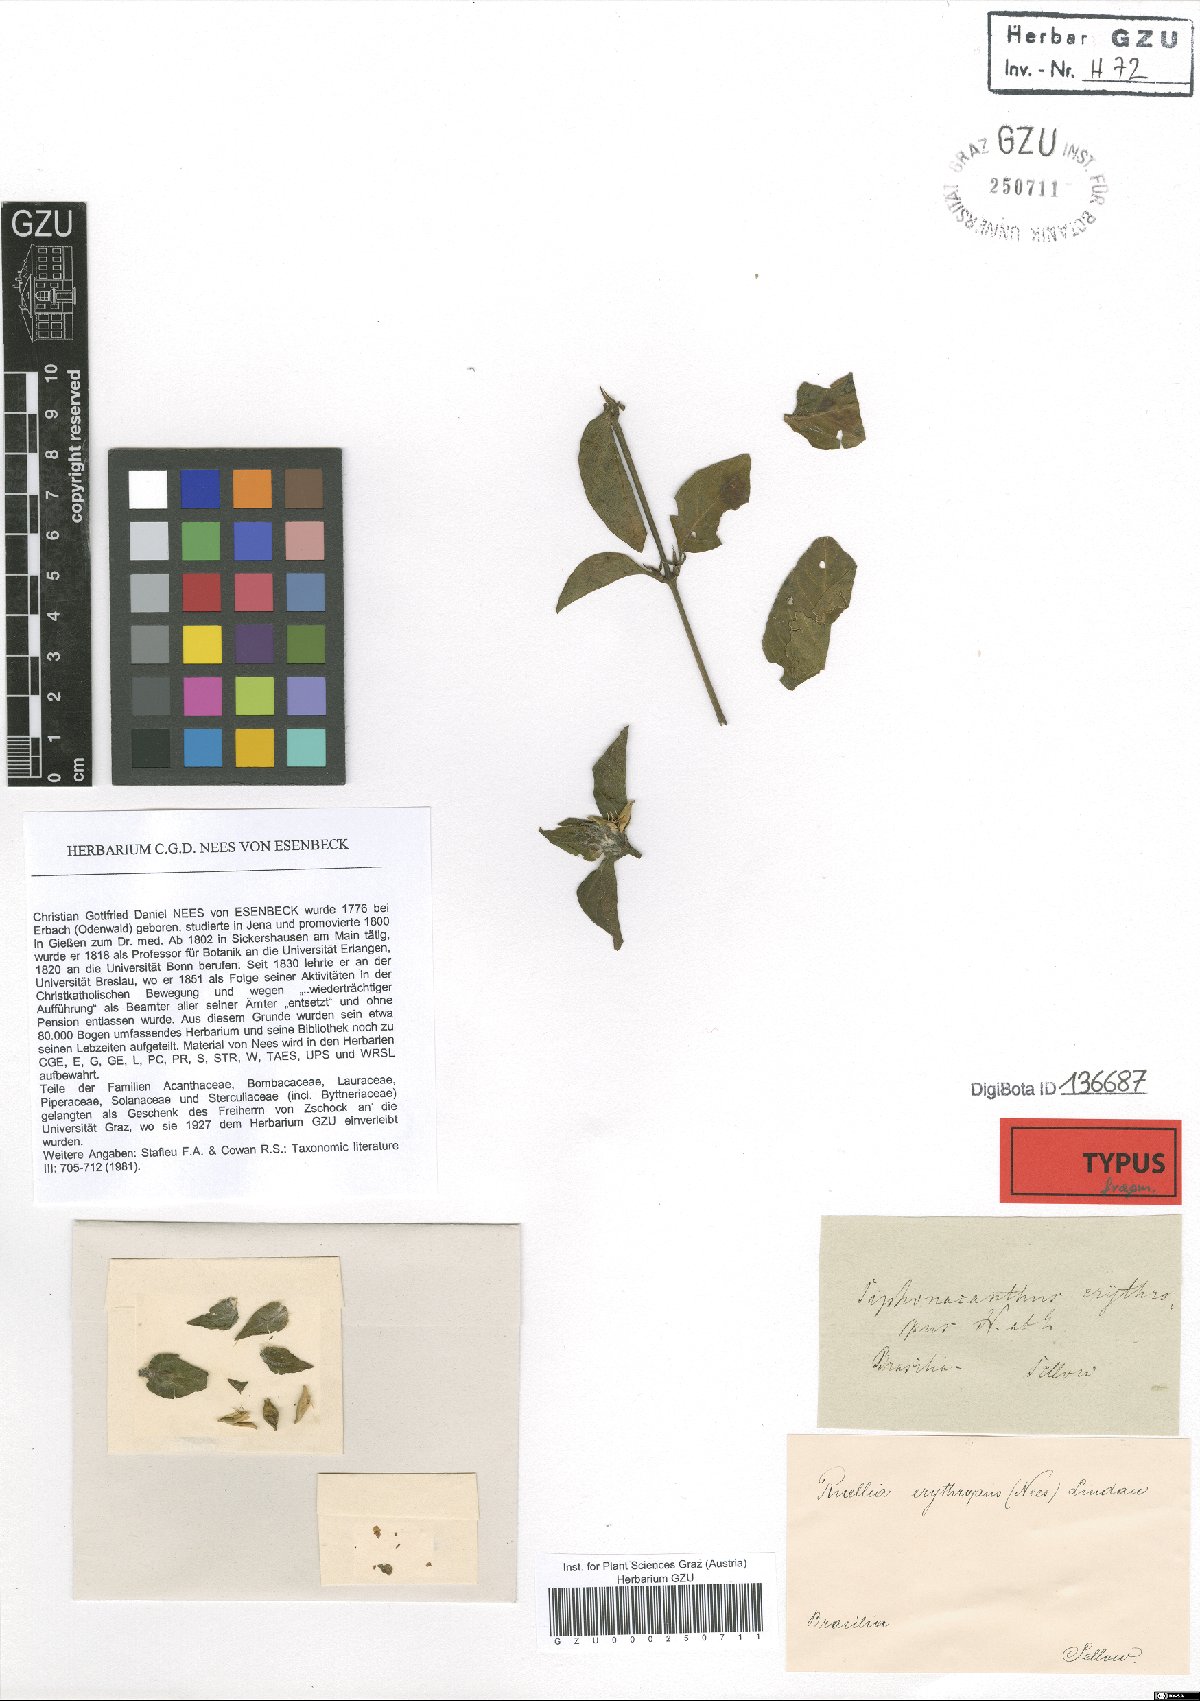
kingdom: Plantae
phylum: Tracheophyta
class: Magnoliopsida
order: Lamiales
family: Acanthaceae
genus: Ruellia
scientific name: Ruellia erythropus
